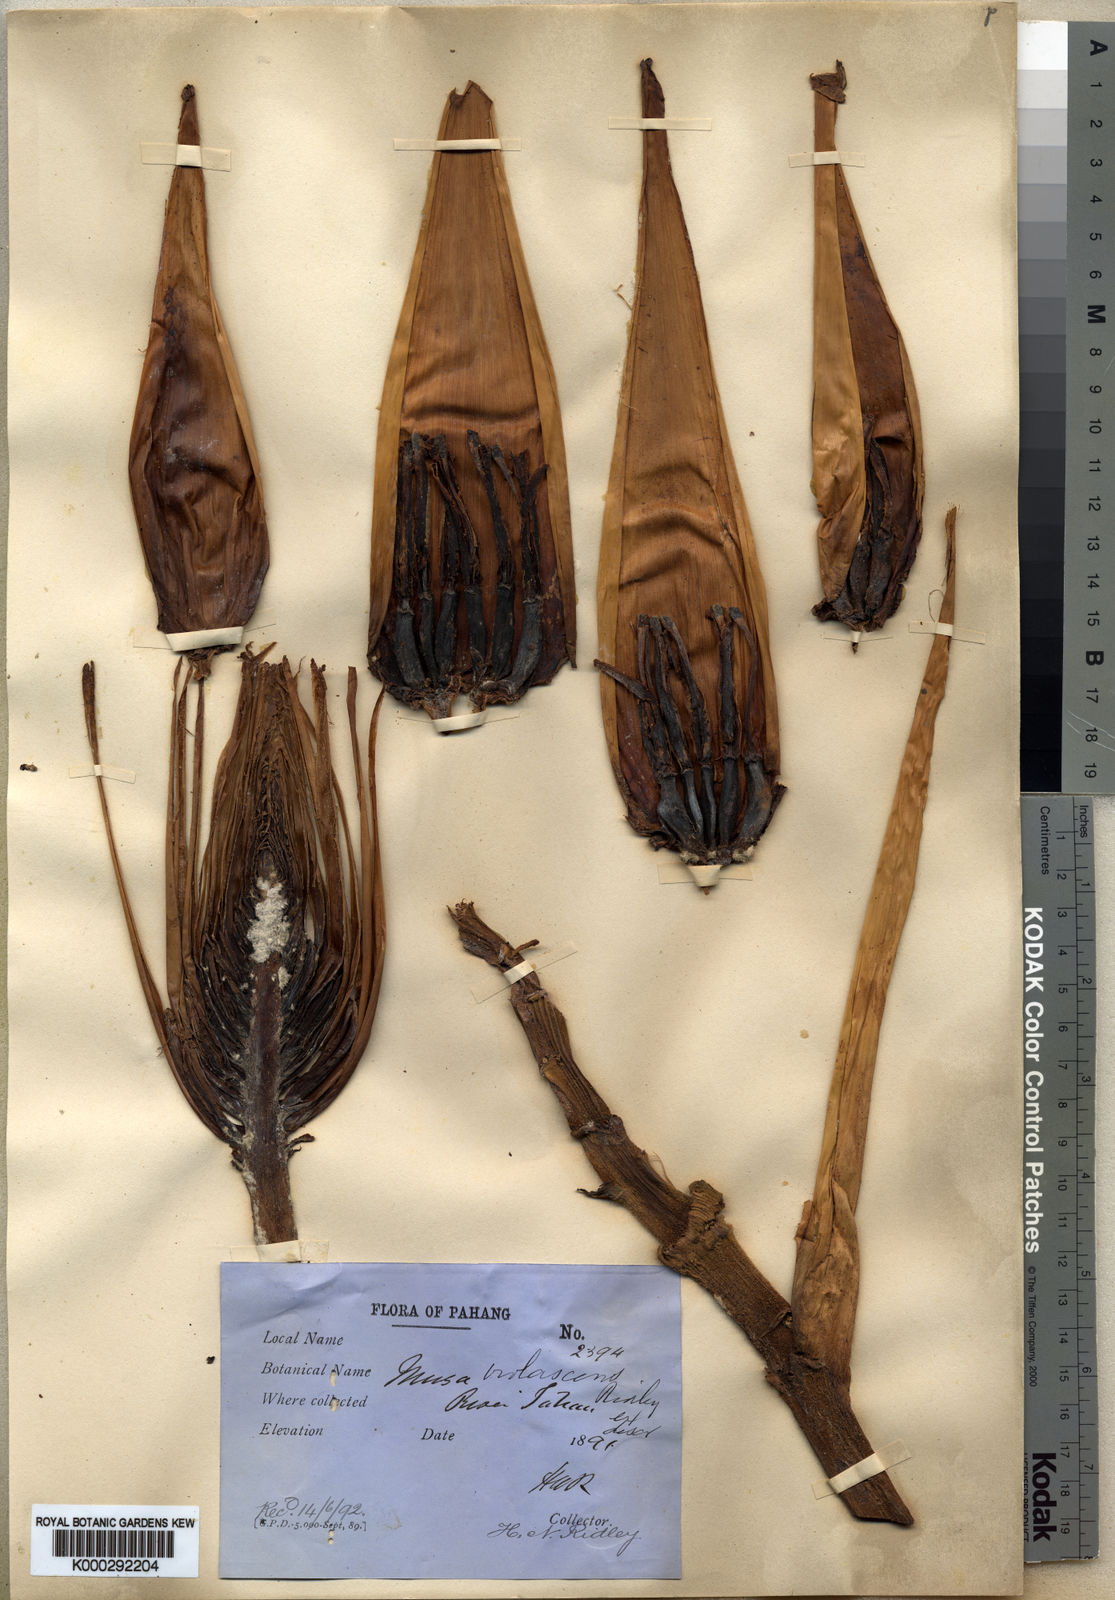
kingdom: Plantae
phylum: Tracheophyta
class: Liliopsida
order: Zingiberales
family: Musaceae
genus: Musa
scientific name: Musa violascens
